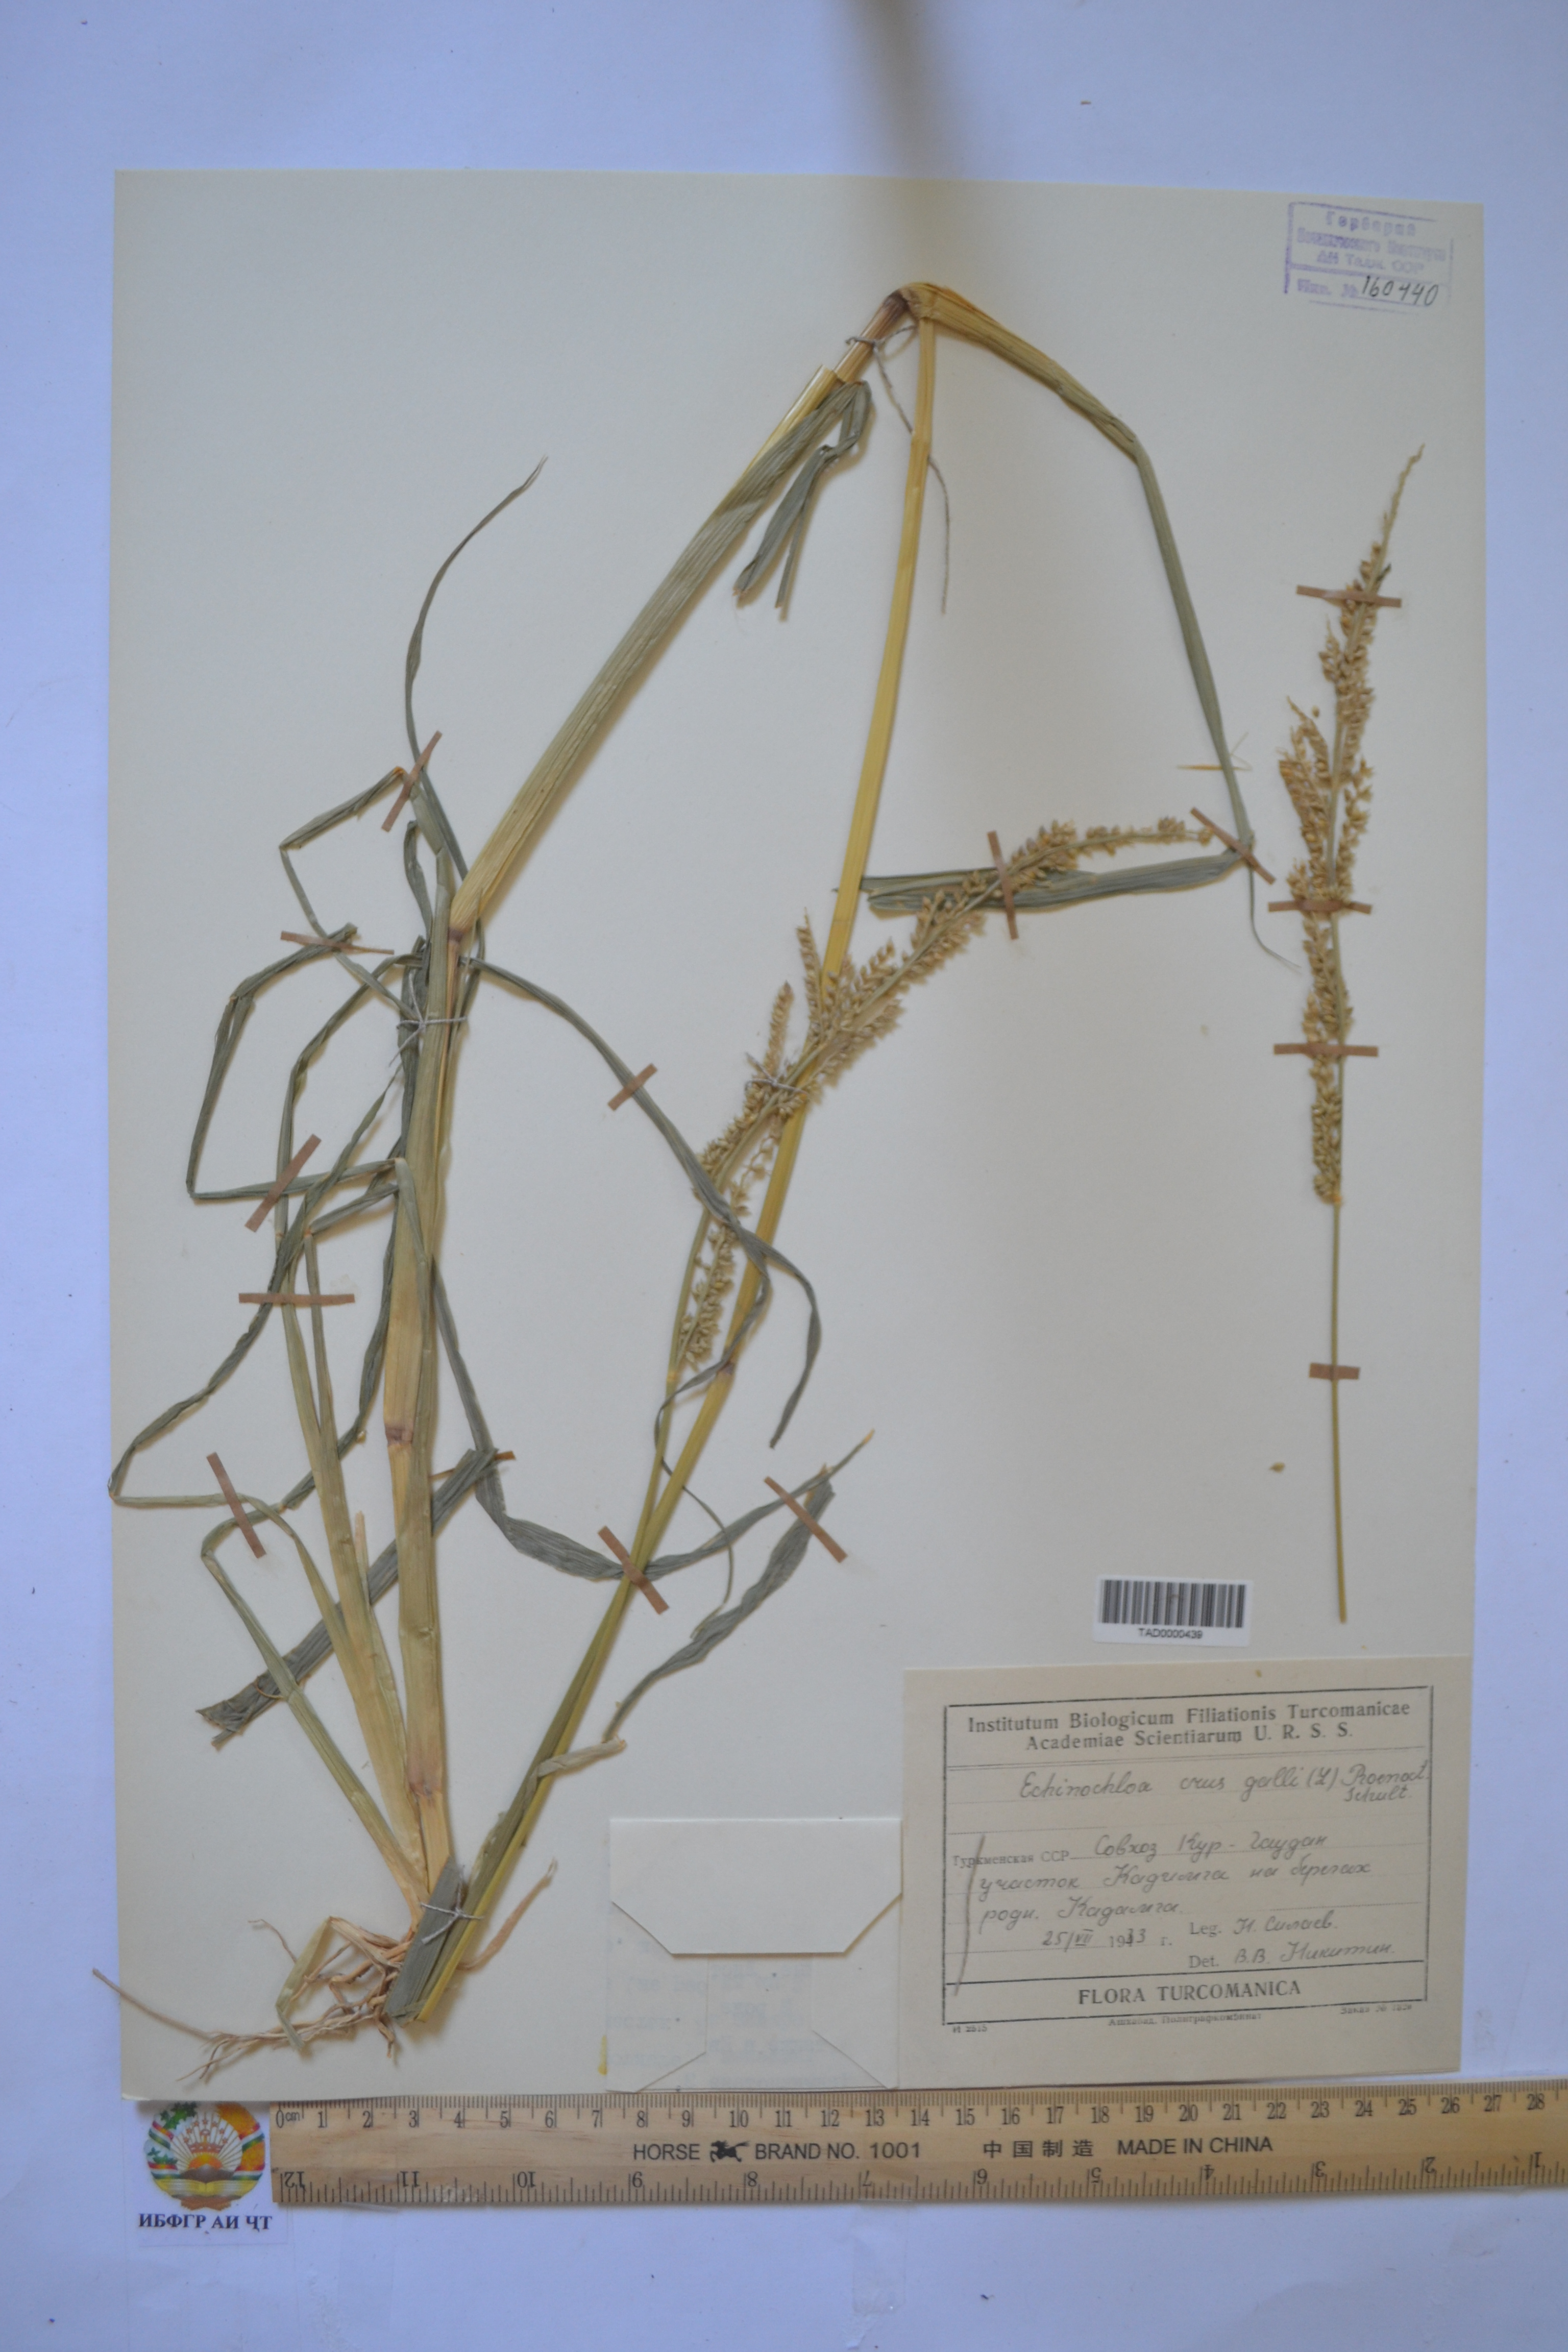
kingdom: Plantae
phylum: Tracheophyta
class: Liliopsida
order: Poales
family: Poaceae
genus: Echinochloa
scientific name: Echinochloa crus-galli
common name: Cockspur
